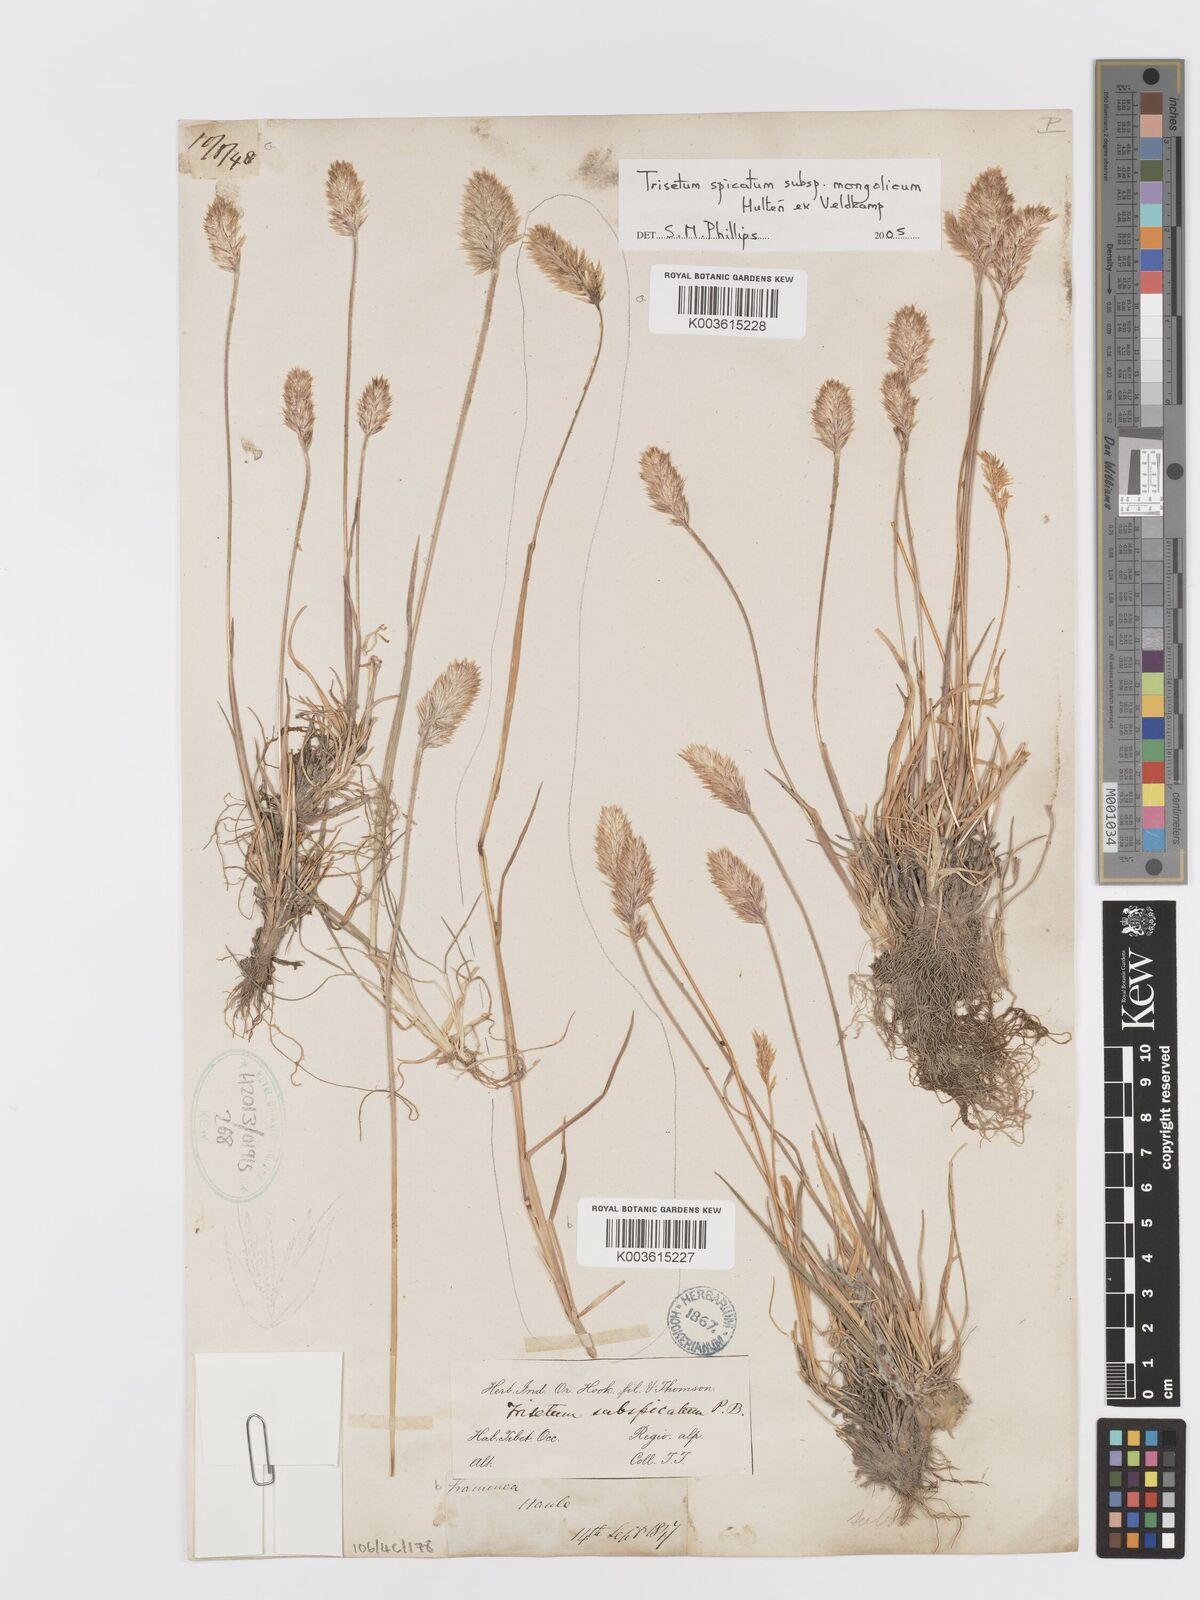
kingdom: Plantae
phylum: Tracheophyta
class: Liliopsida
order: Poales
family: Poaceae
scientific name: Poaceae
